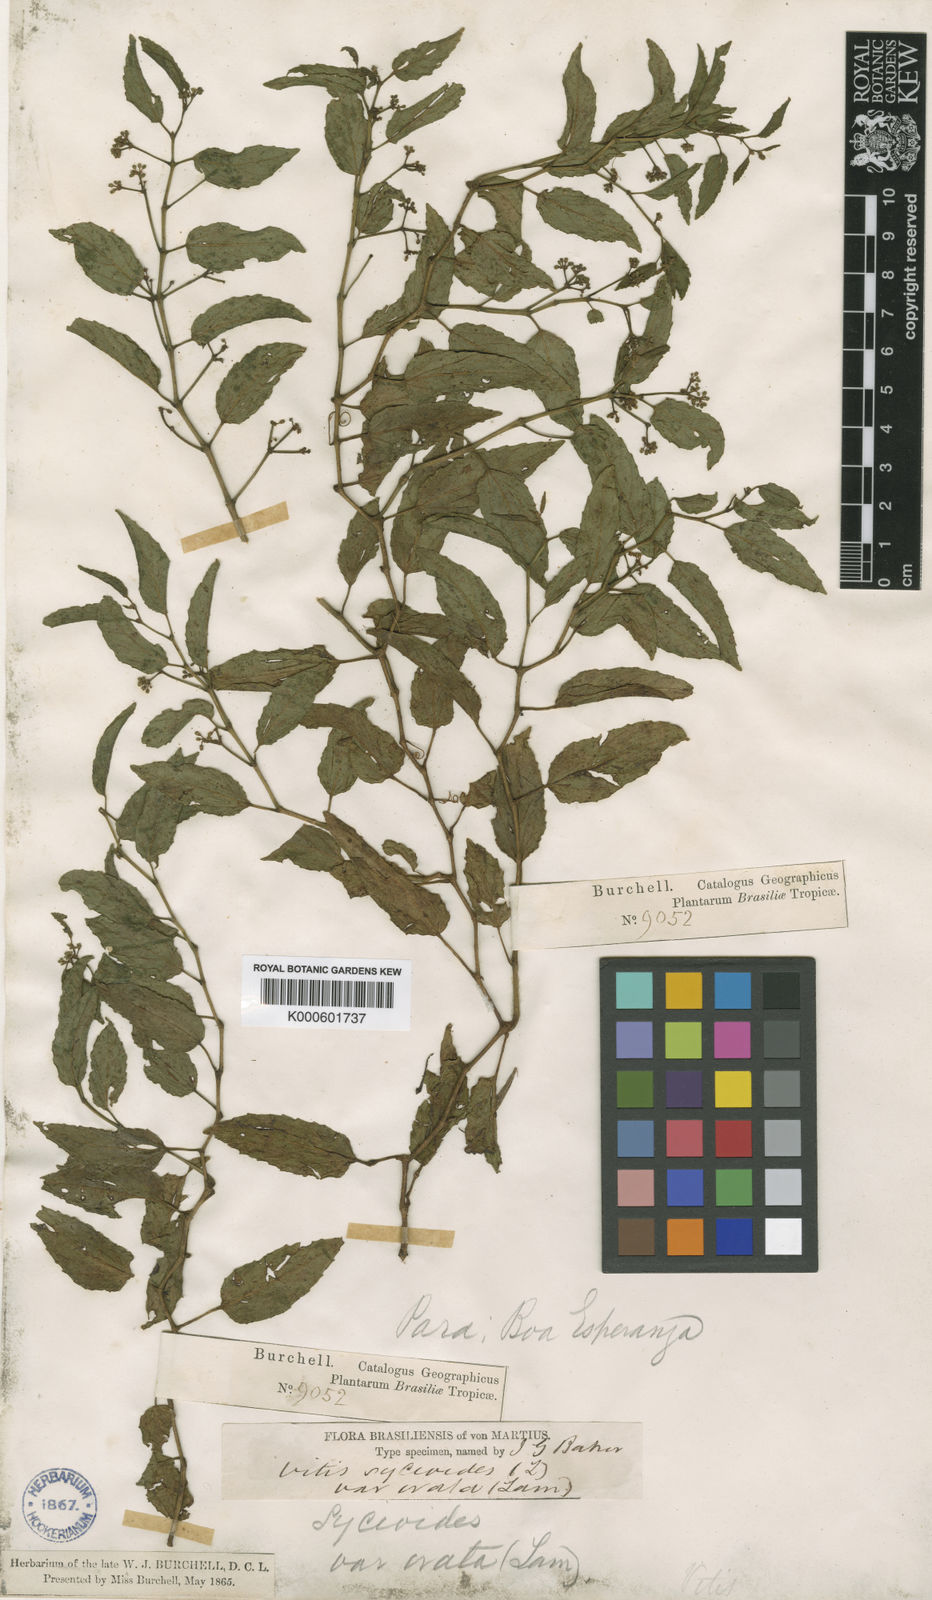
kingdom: Plantae
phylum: Tracheophyta
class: Magnoliopsida
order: Vitales
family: Vitaceae
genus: Cissus
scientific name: Cissus verticillata
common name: Princess vine
